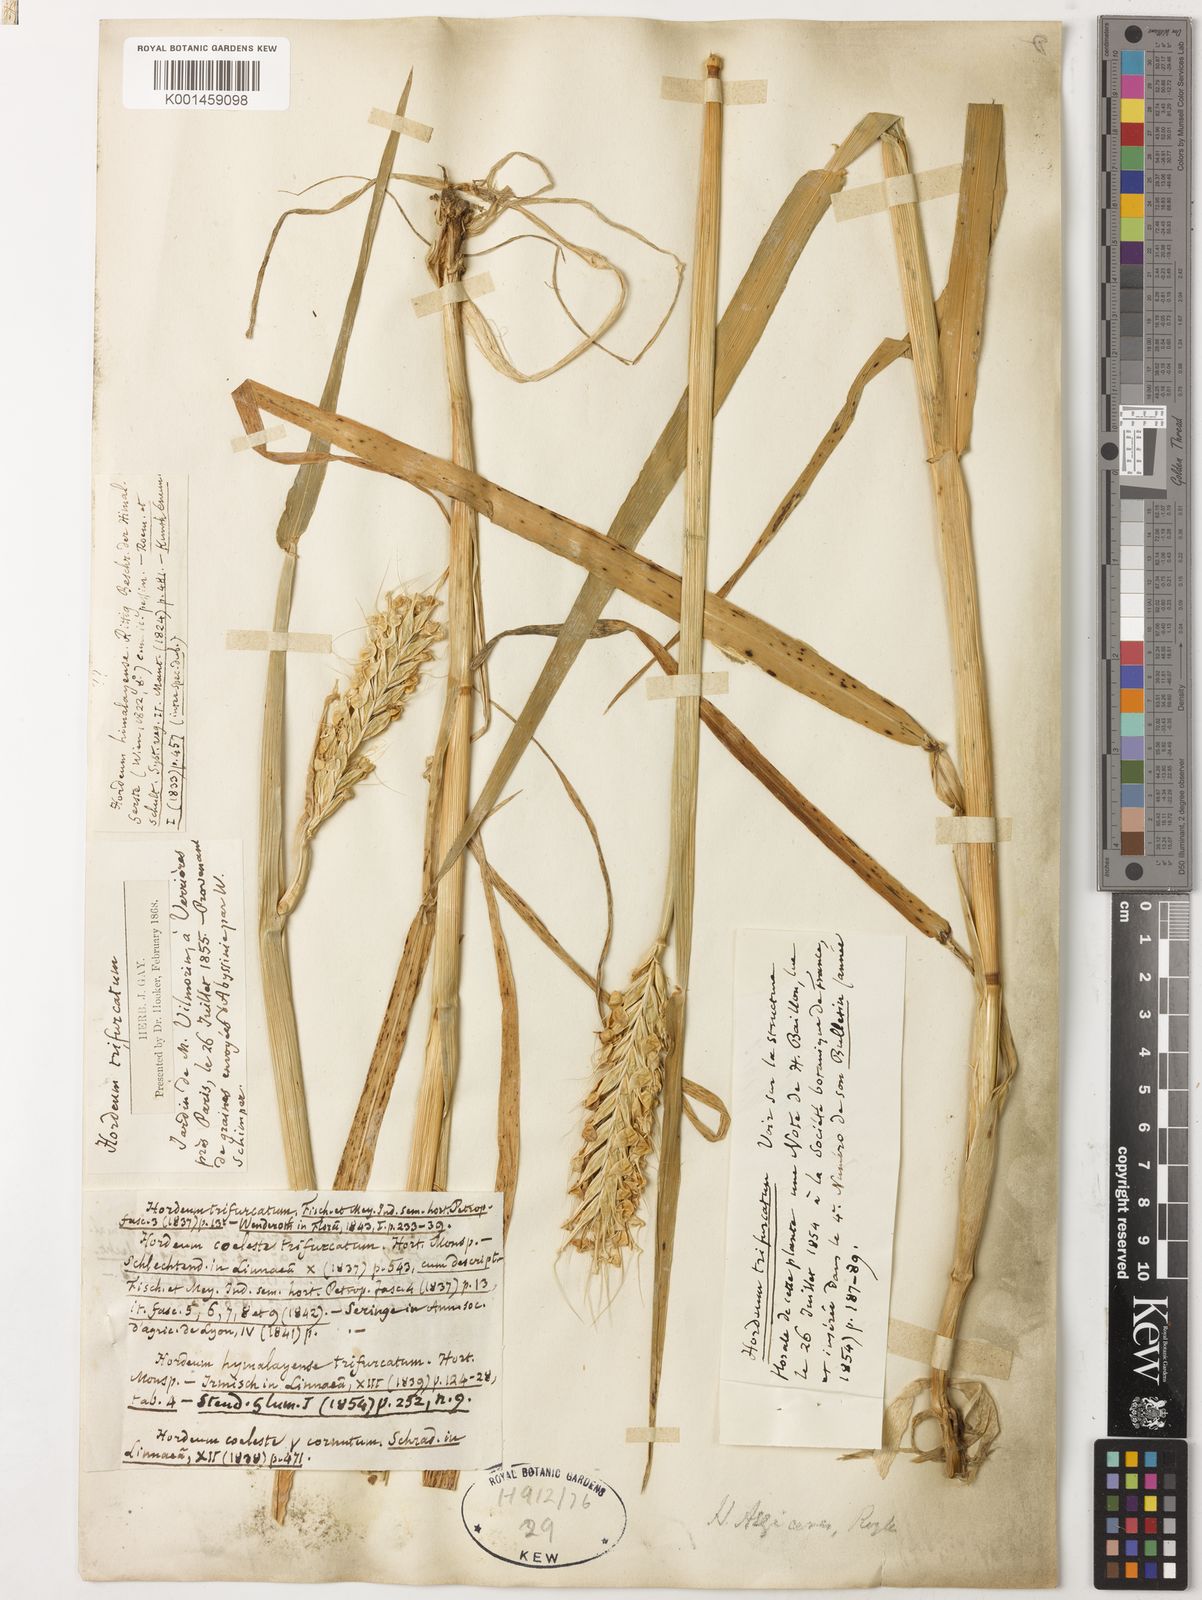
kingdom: Plantae
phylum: Tracheophyta
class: Liliopsida
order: Poales
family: Poaceae
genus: Hordeum
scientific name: Hordeum vulgare
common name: Common barley
